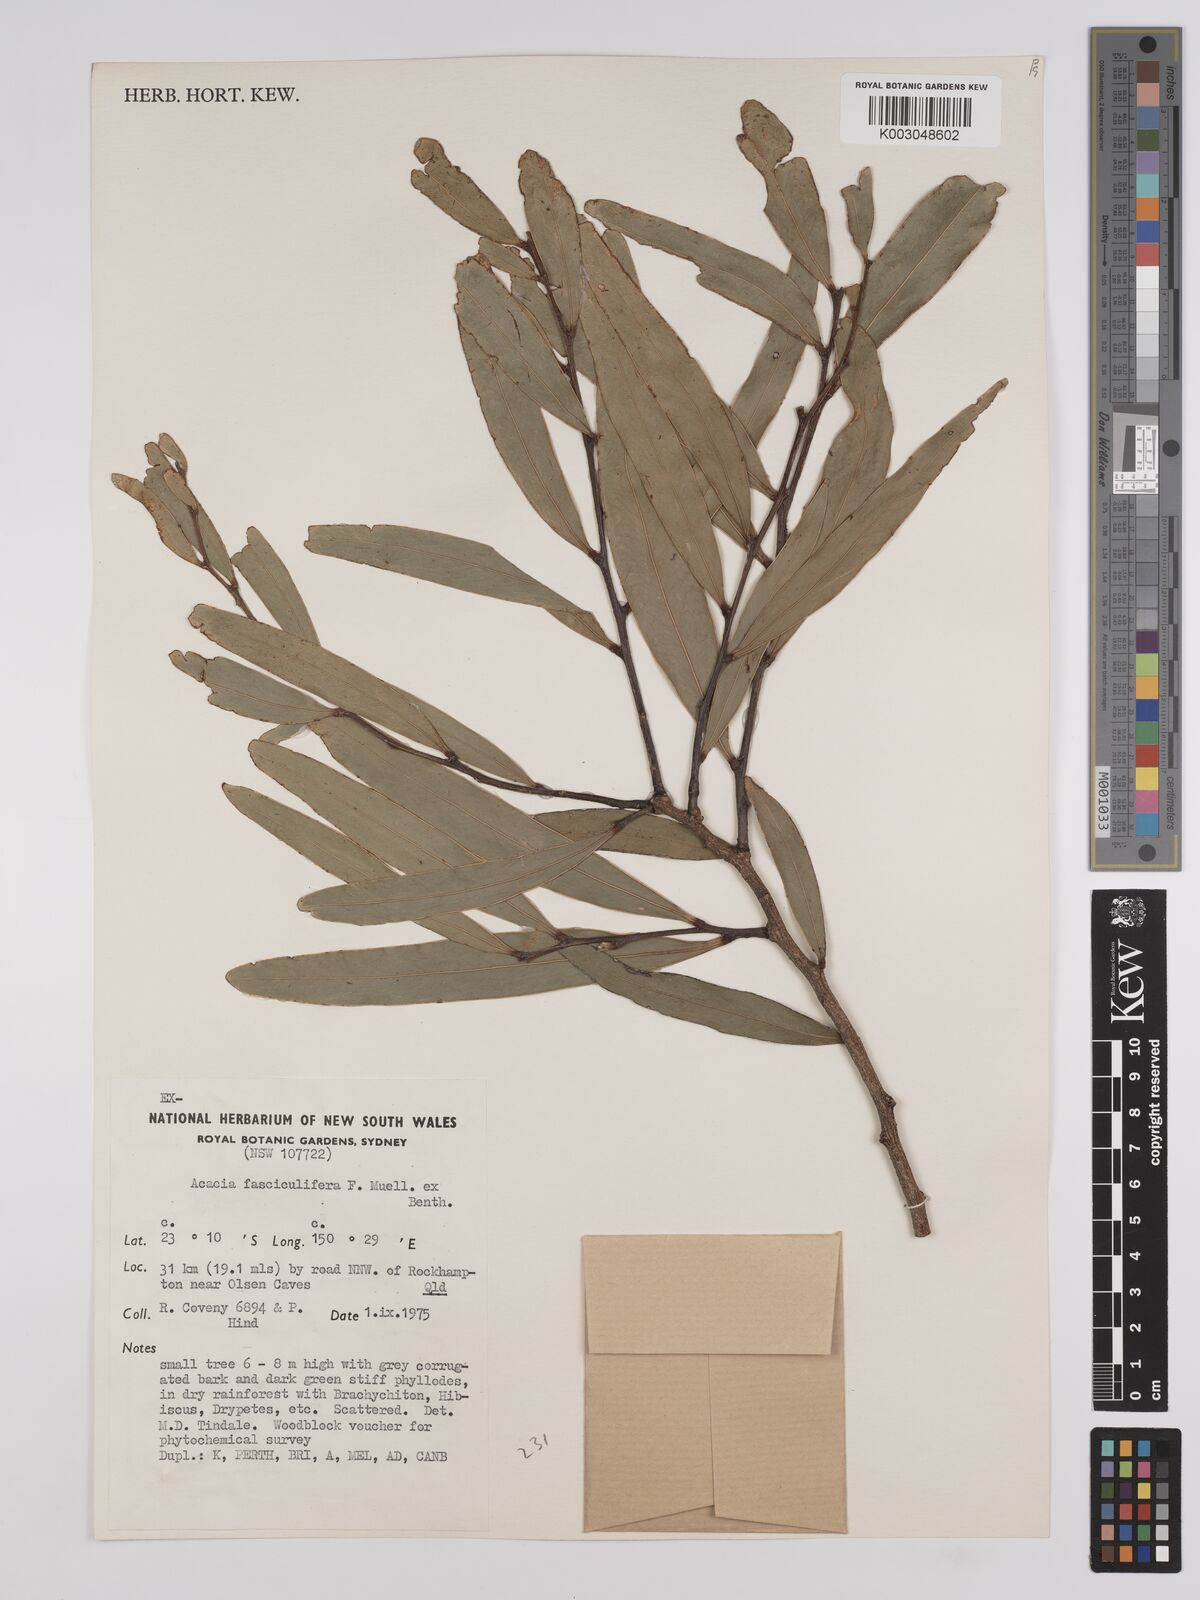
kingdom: Plantae
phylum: Tracheophyta
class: Magnoliopsida
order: Fabales
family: Fabaceae
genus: Acacia
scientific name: Acacia fasciculifera
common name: Scalybark
